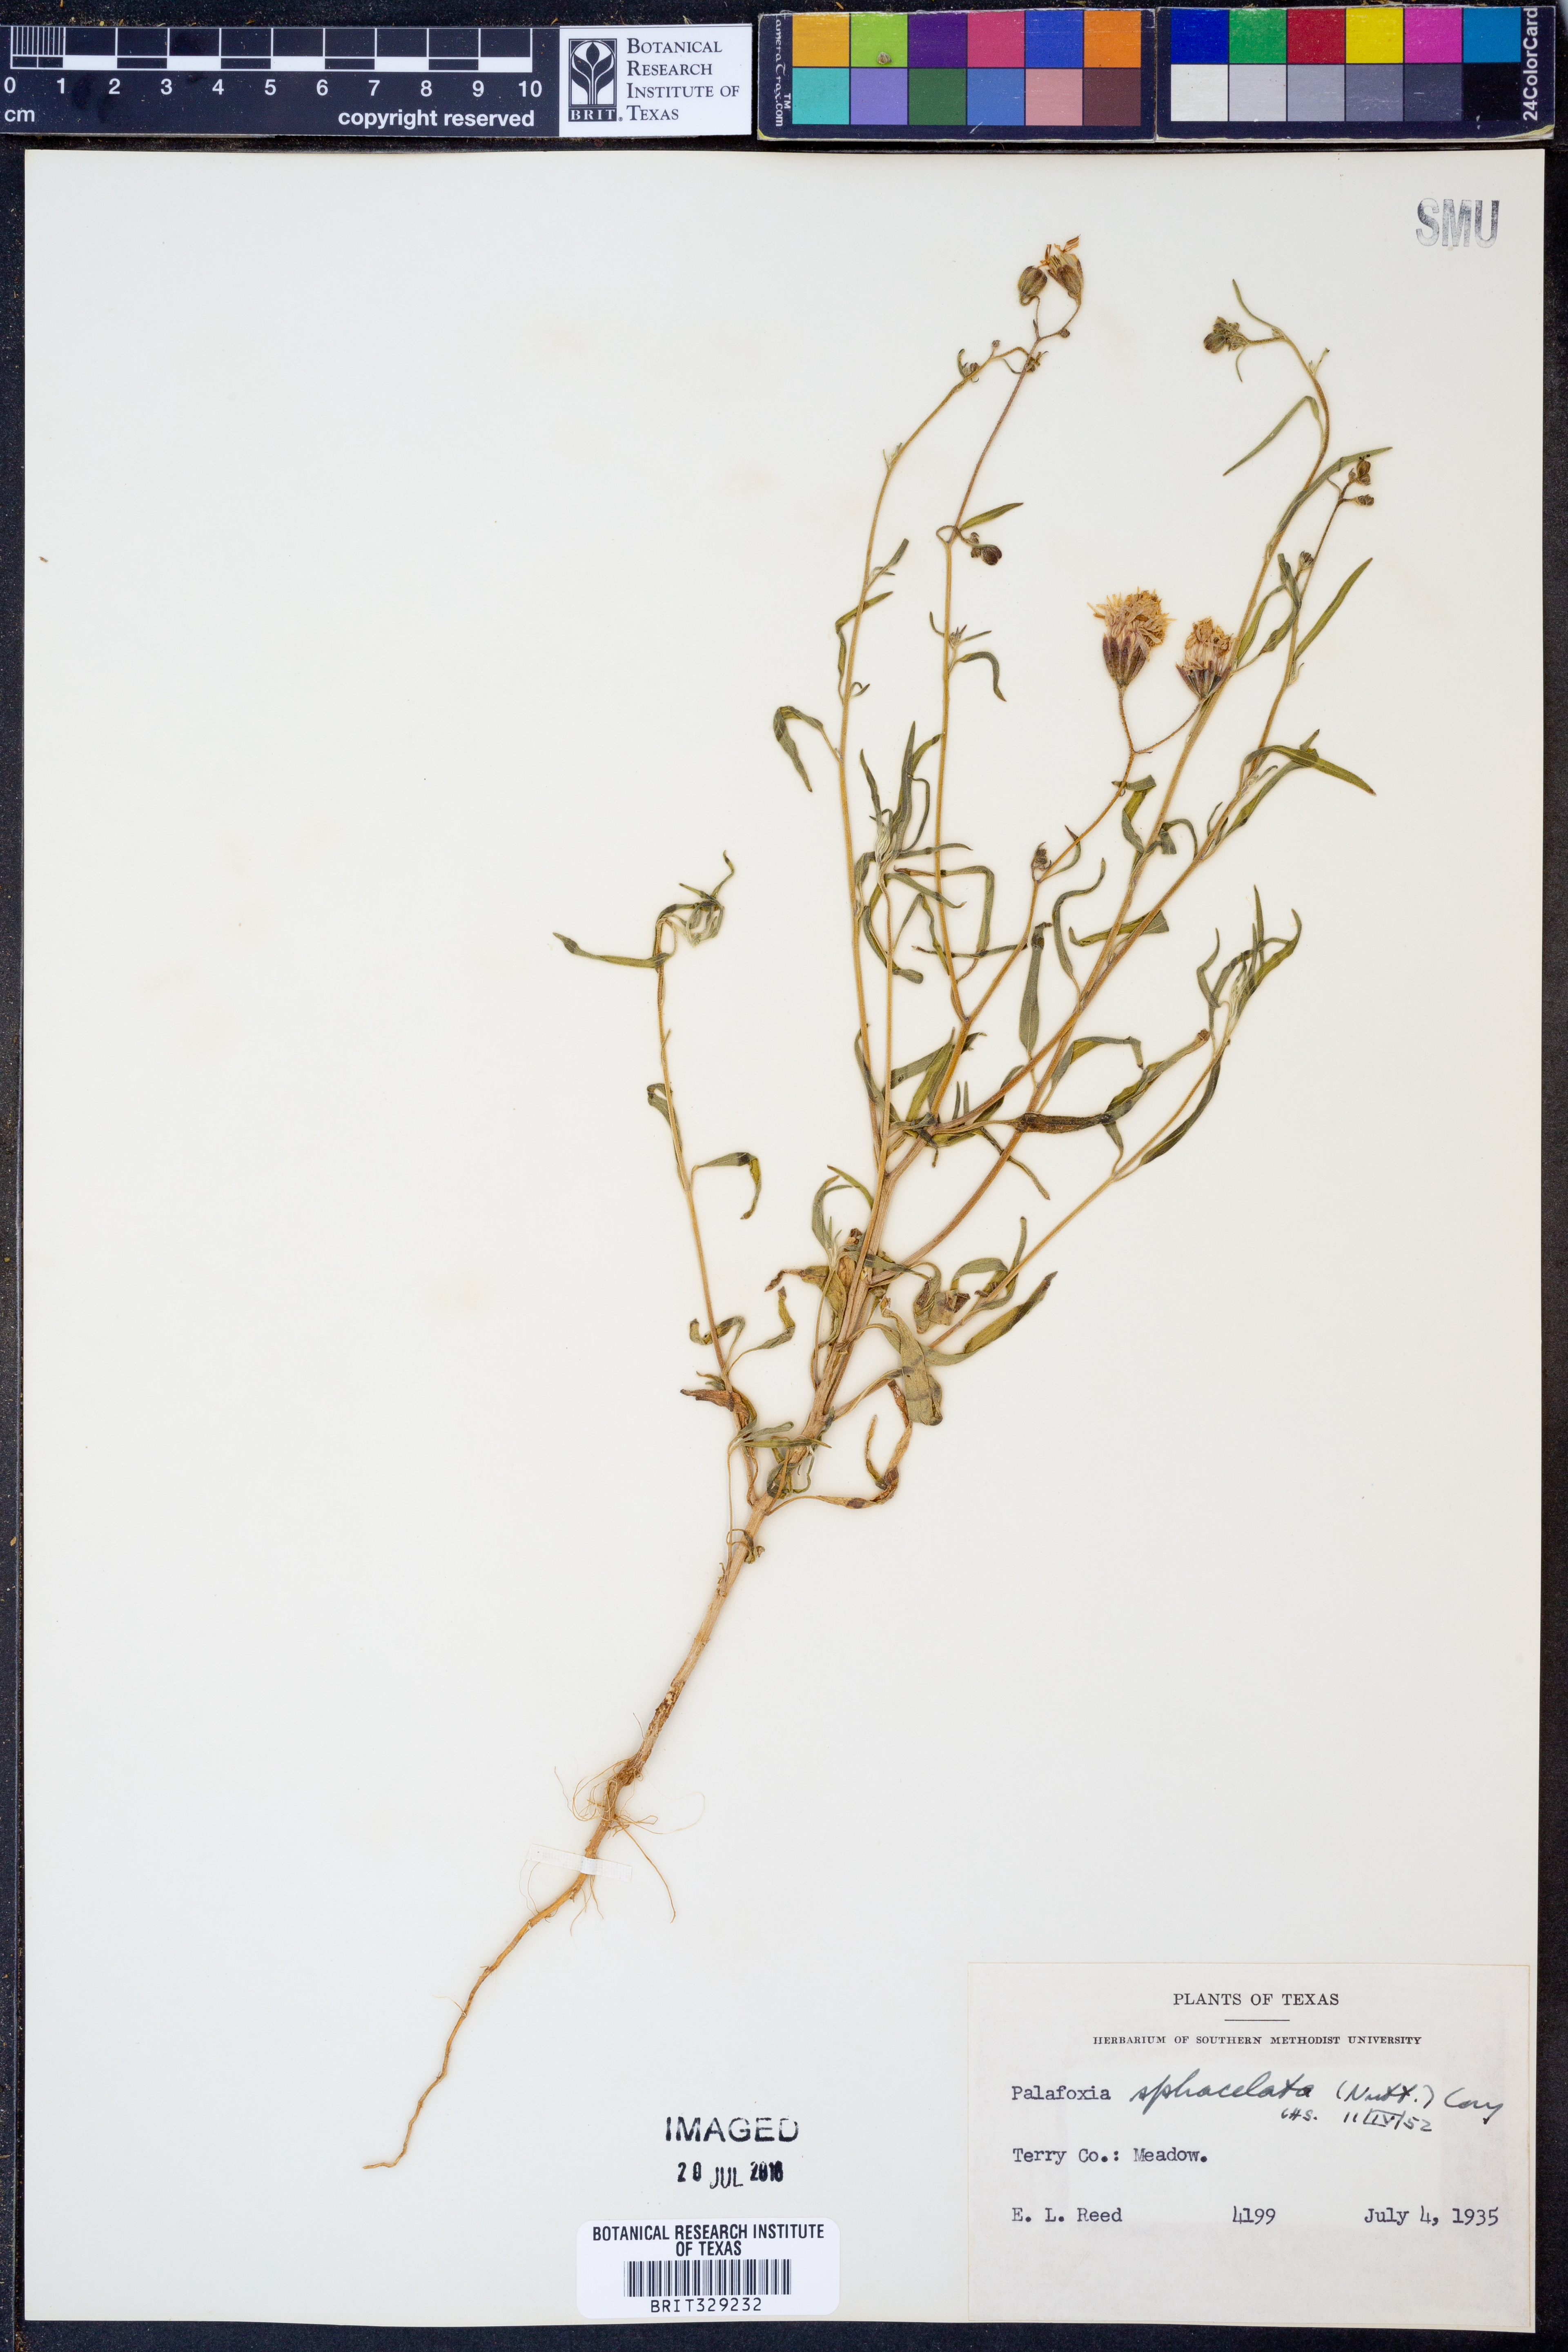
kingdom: Plantae
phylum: Tracheophyta
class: Magnoliopsida
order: Asterales
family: Asteraceae
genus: Palafoxia
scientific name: Palafoxia sphacelata
